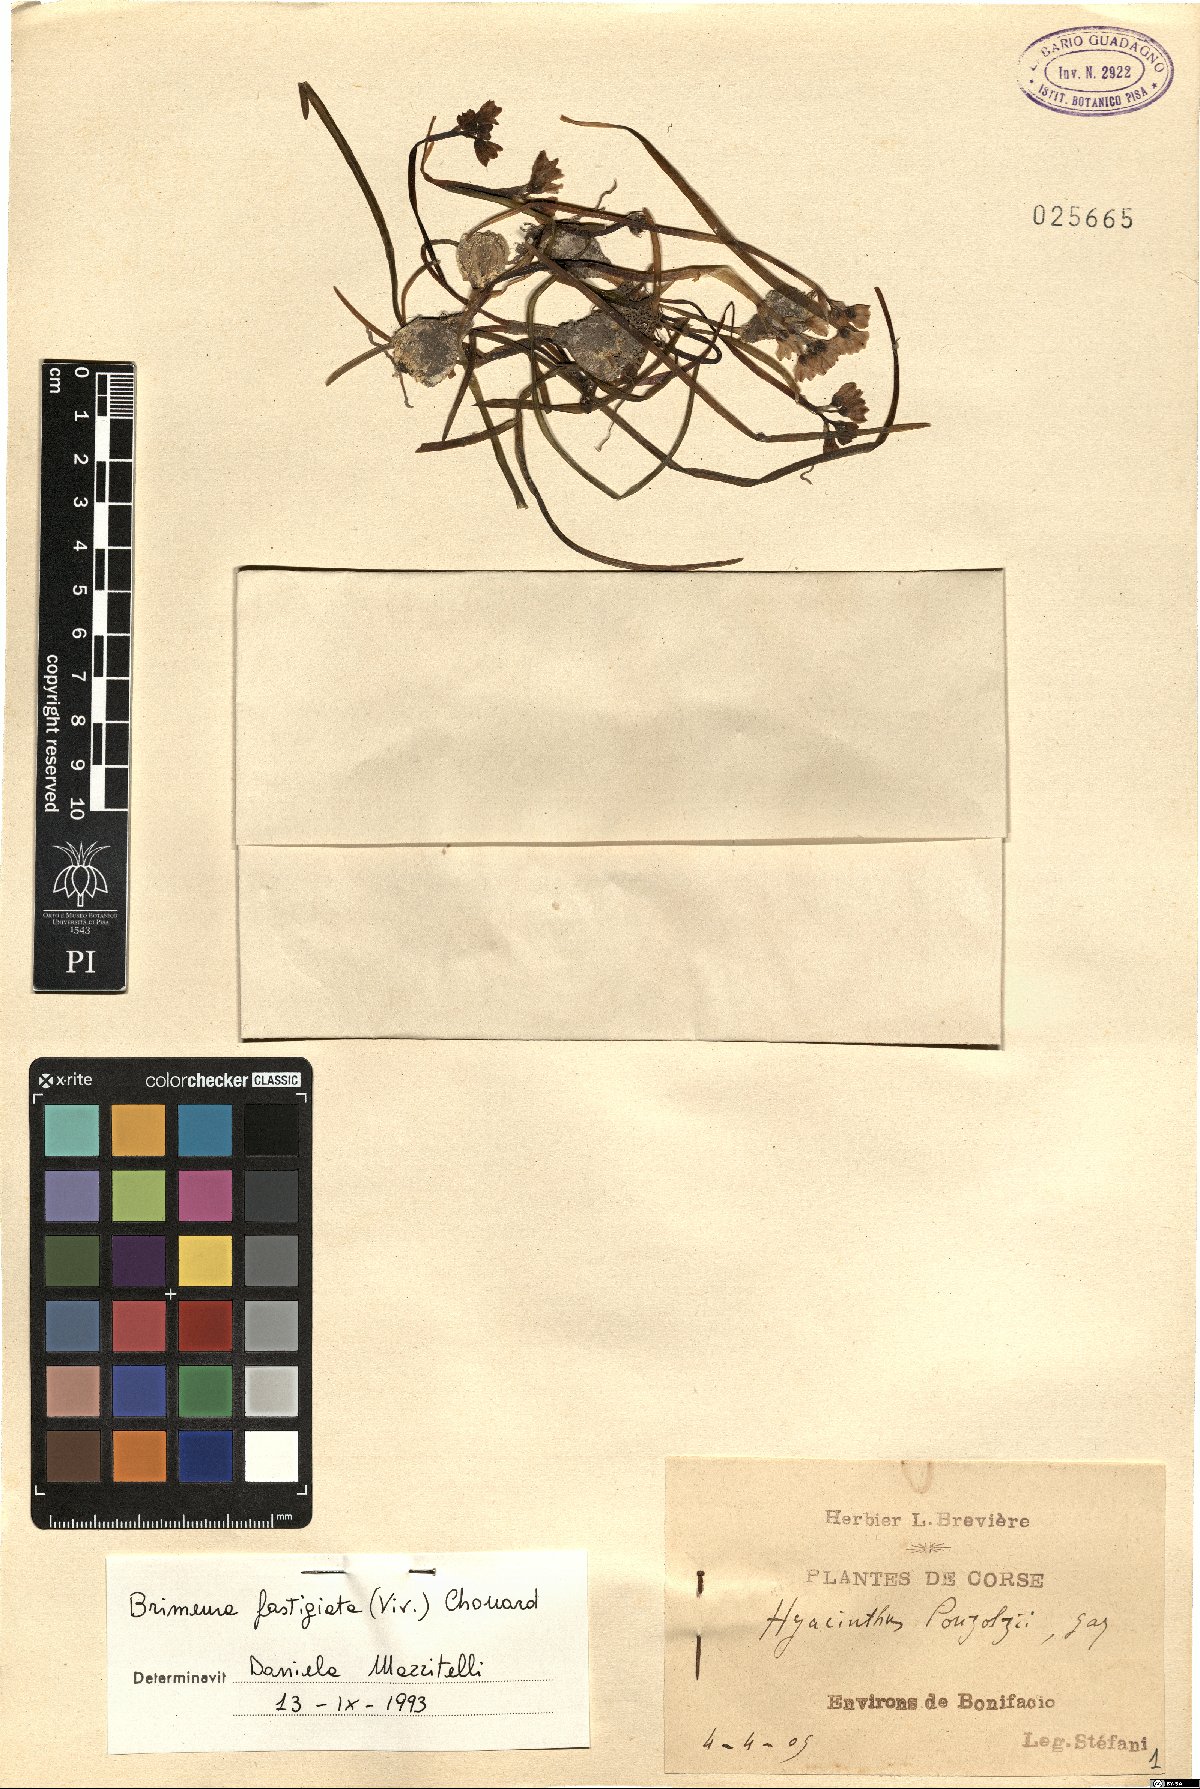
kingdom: Plantae
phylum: Tracheophyta
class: Liliopsida
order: Asparagales
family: Asparagaceae
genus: Brimeura
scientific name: Brimeura fastigiata
